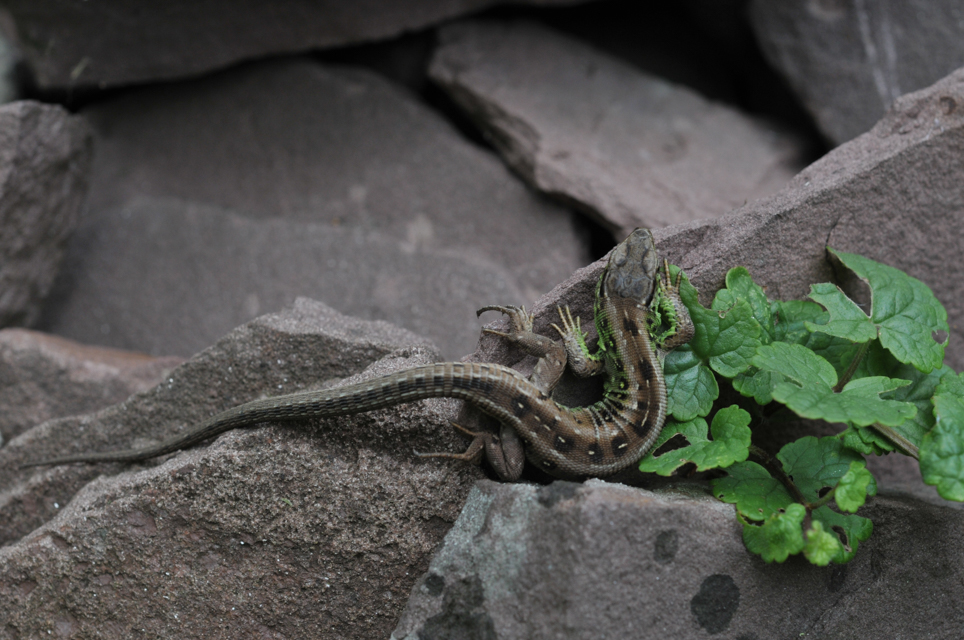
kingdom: Animalia
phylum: Chordata
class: Squamata
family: Lacertidae
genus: Lacerta
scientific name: Lacerta agilis
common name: Sand lizard
